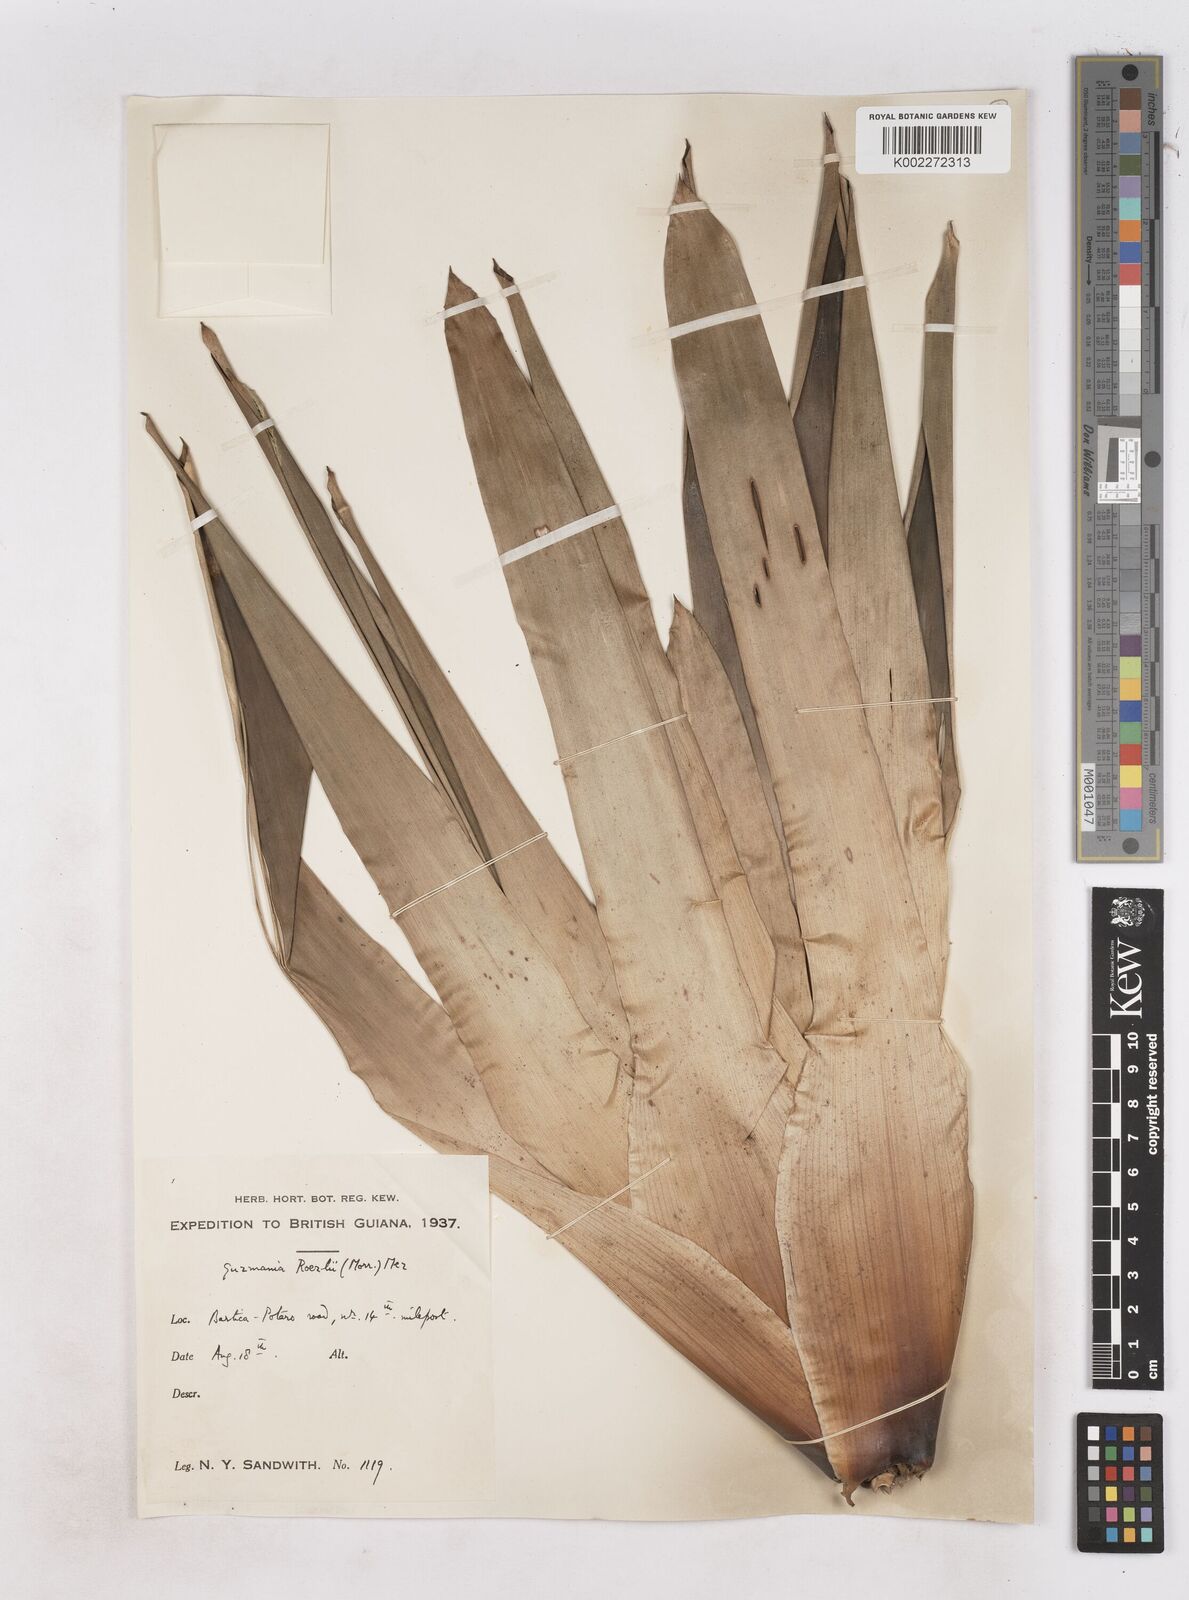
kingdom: Plantae
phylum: Tracheophyta
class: Liliopsida
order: Poales
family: Bromeliaceae
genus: Guzmania
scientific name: Guzmania roezlii
